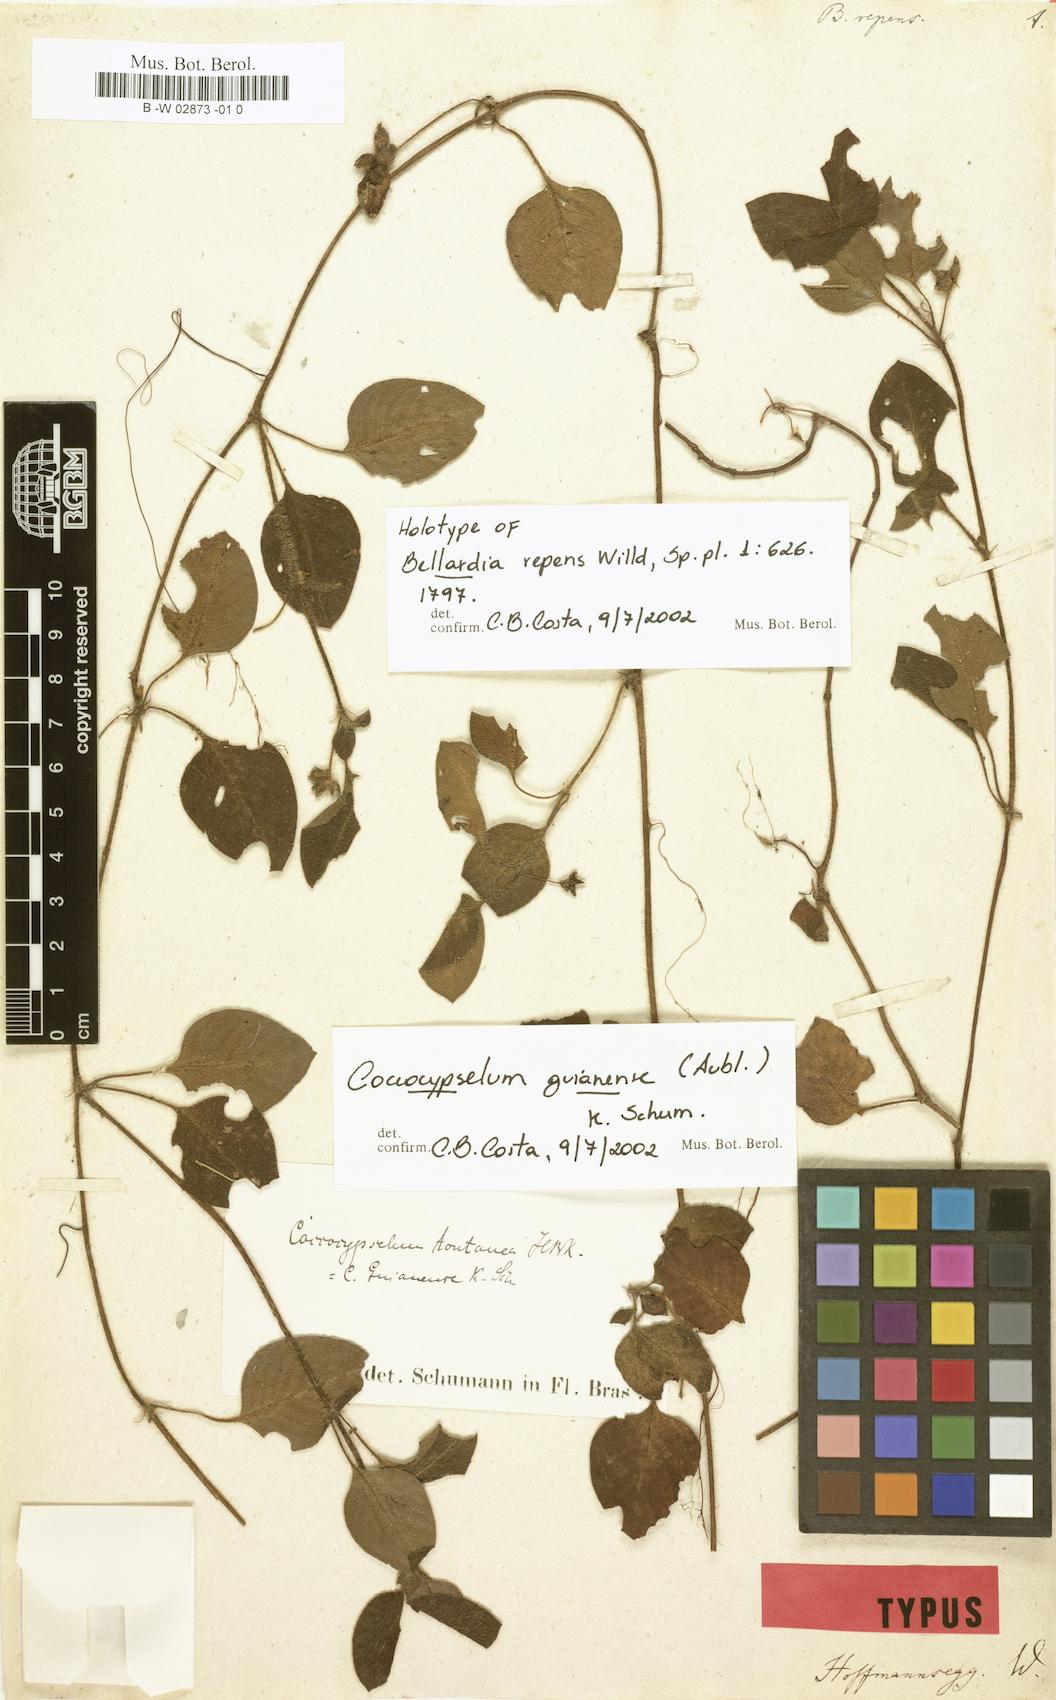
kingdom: Plantae
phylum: Tracheophyta
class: Magnoliopsida
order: Gentianales
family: Rubiaceae
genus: Coccocypselum
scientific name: Coccocypselum guianense
